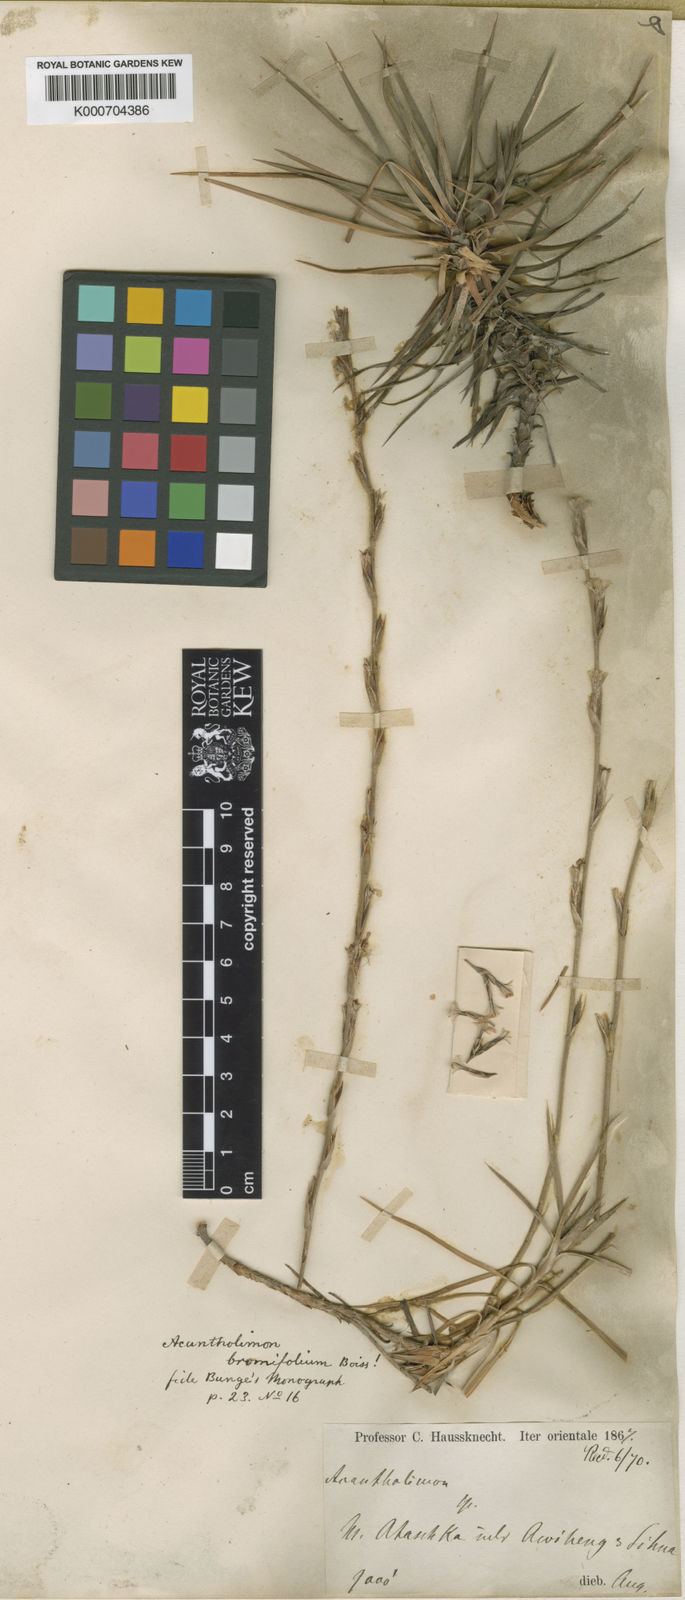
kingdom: Plantae
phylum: Tracheophyta
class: Magnoliopsida
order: Caryophyllales
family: Plumbaginaceae
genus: Acantholimon
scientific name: Acantholimon bromifolium
